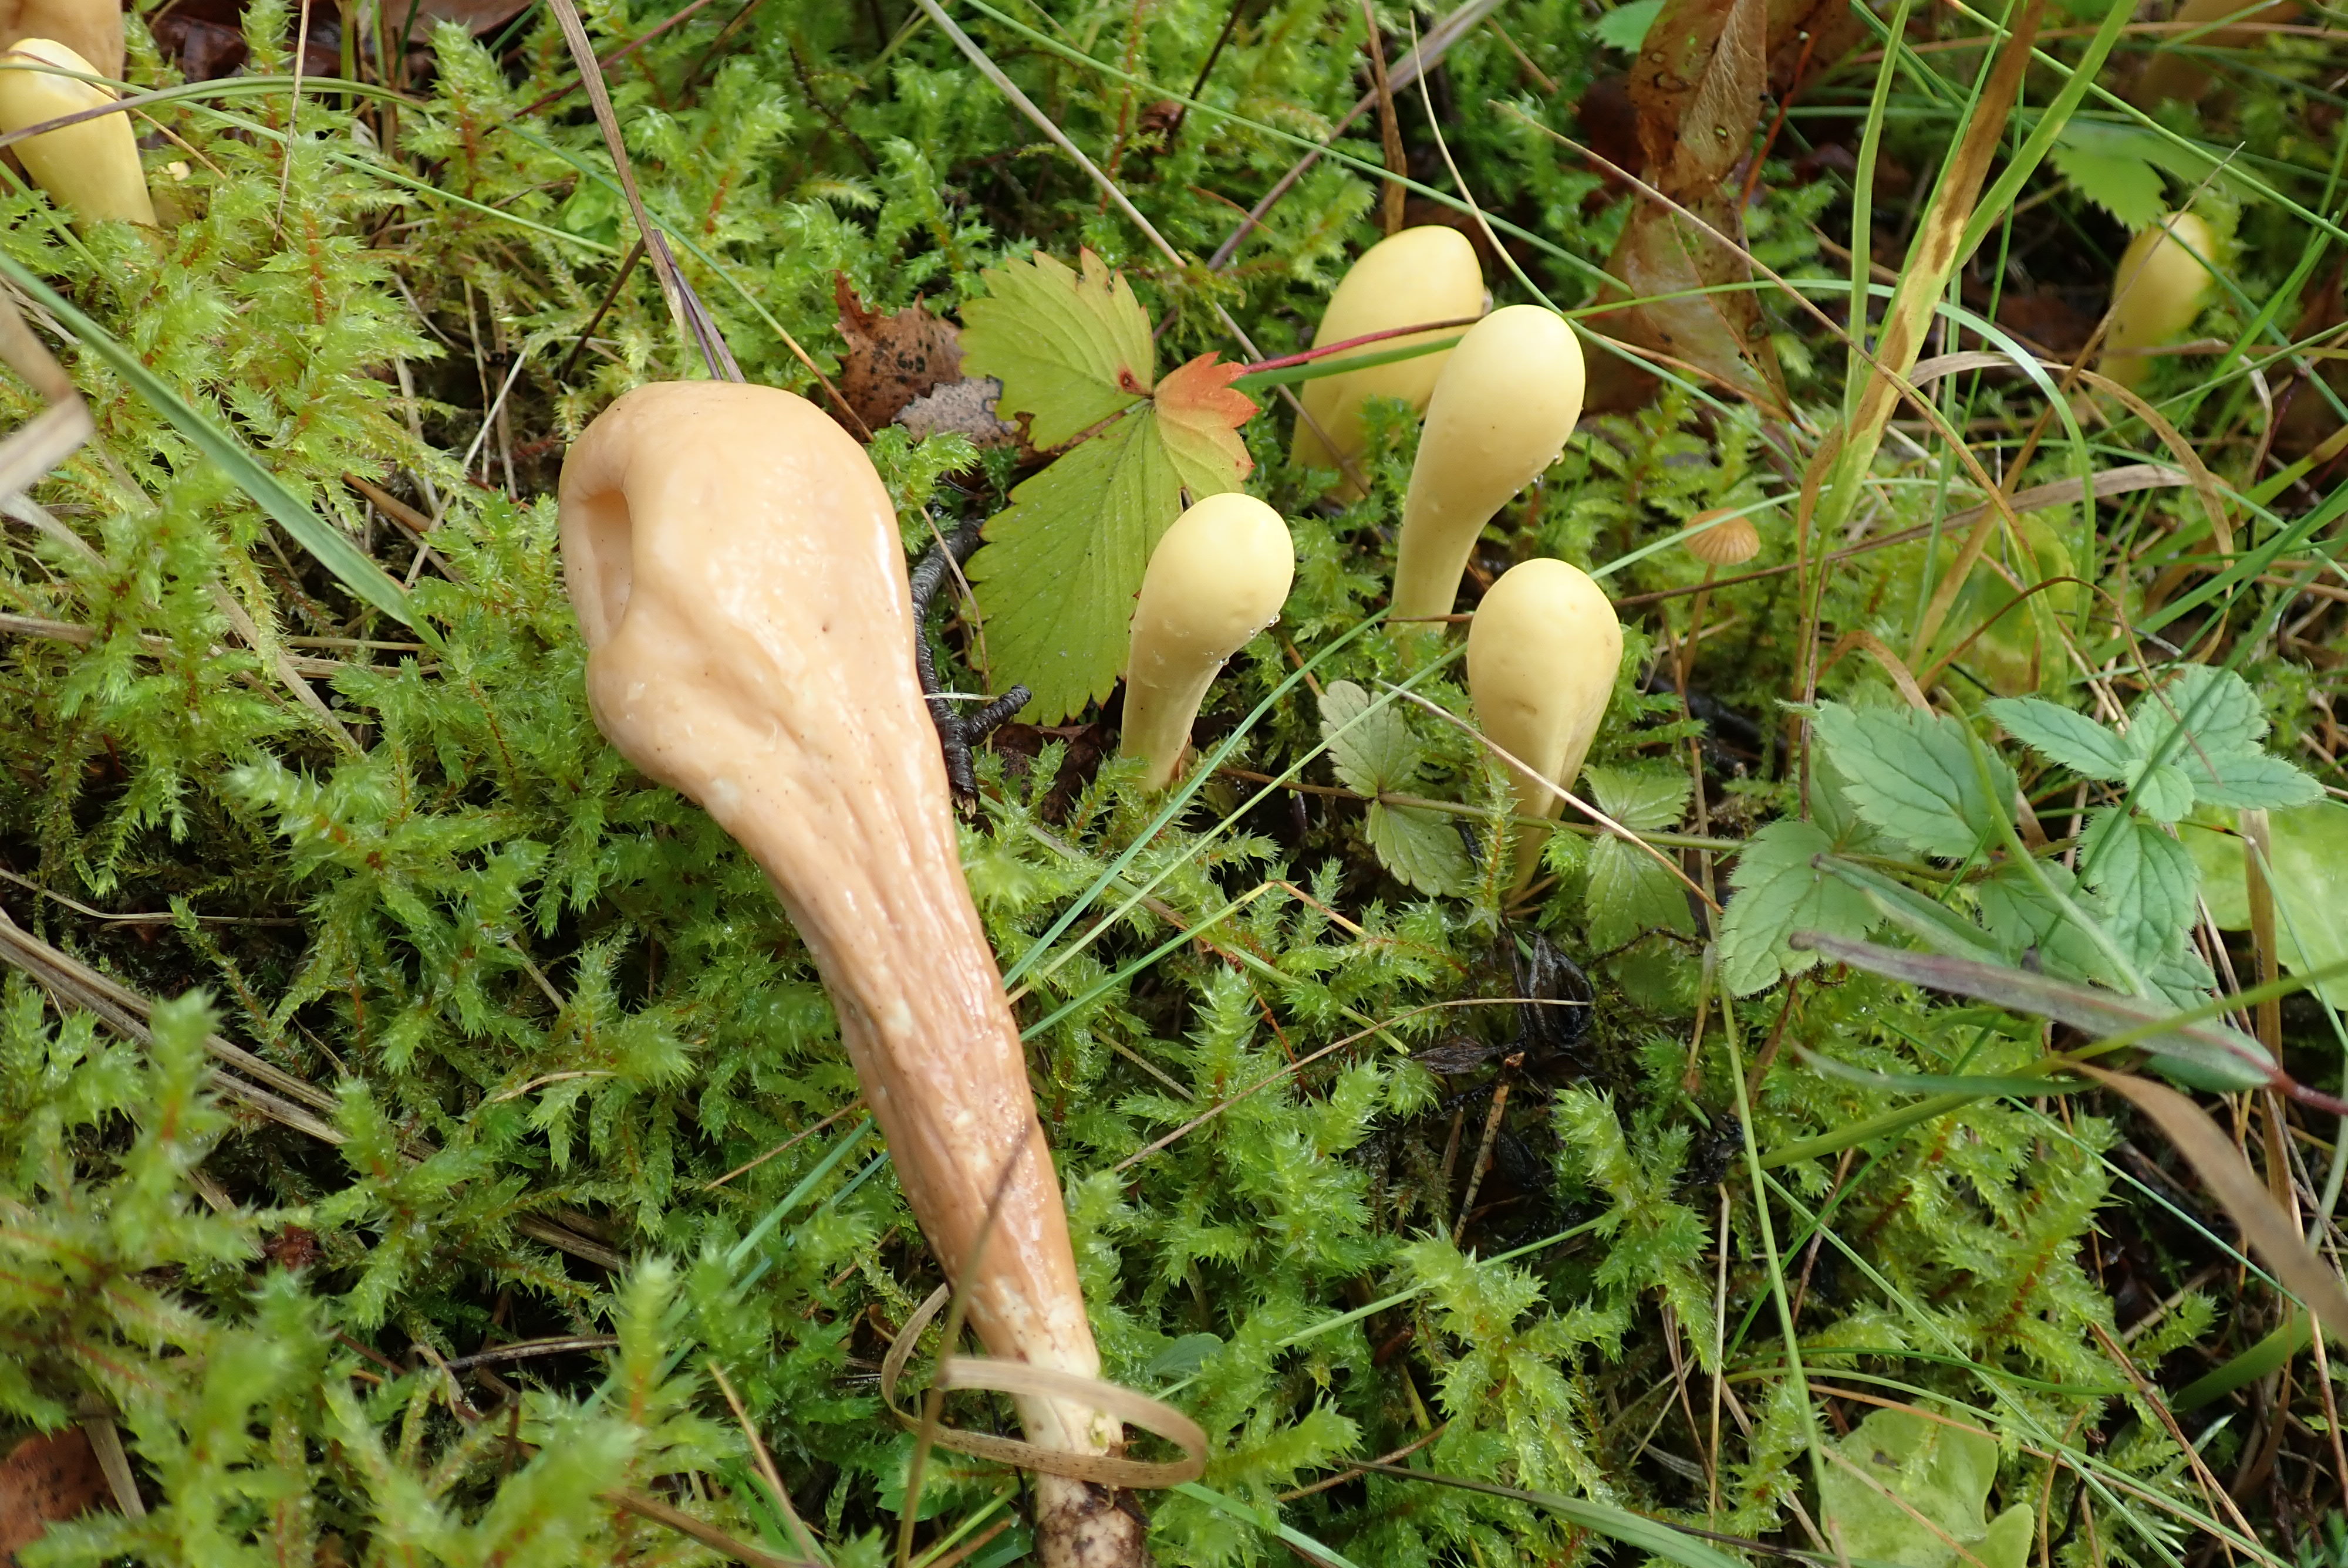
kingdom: Fungi
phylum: Basidiomycota
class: Agaricomycetes
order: Gomphales
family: Clavariadelphaceae
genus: Clavariadelphus
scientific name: Clavariadelphus pistillaris
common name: Giant club
